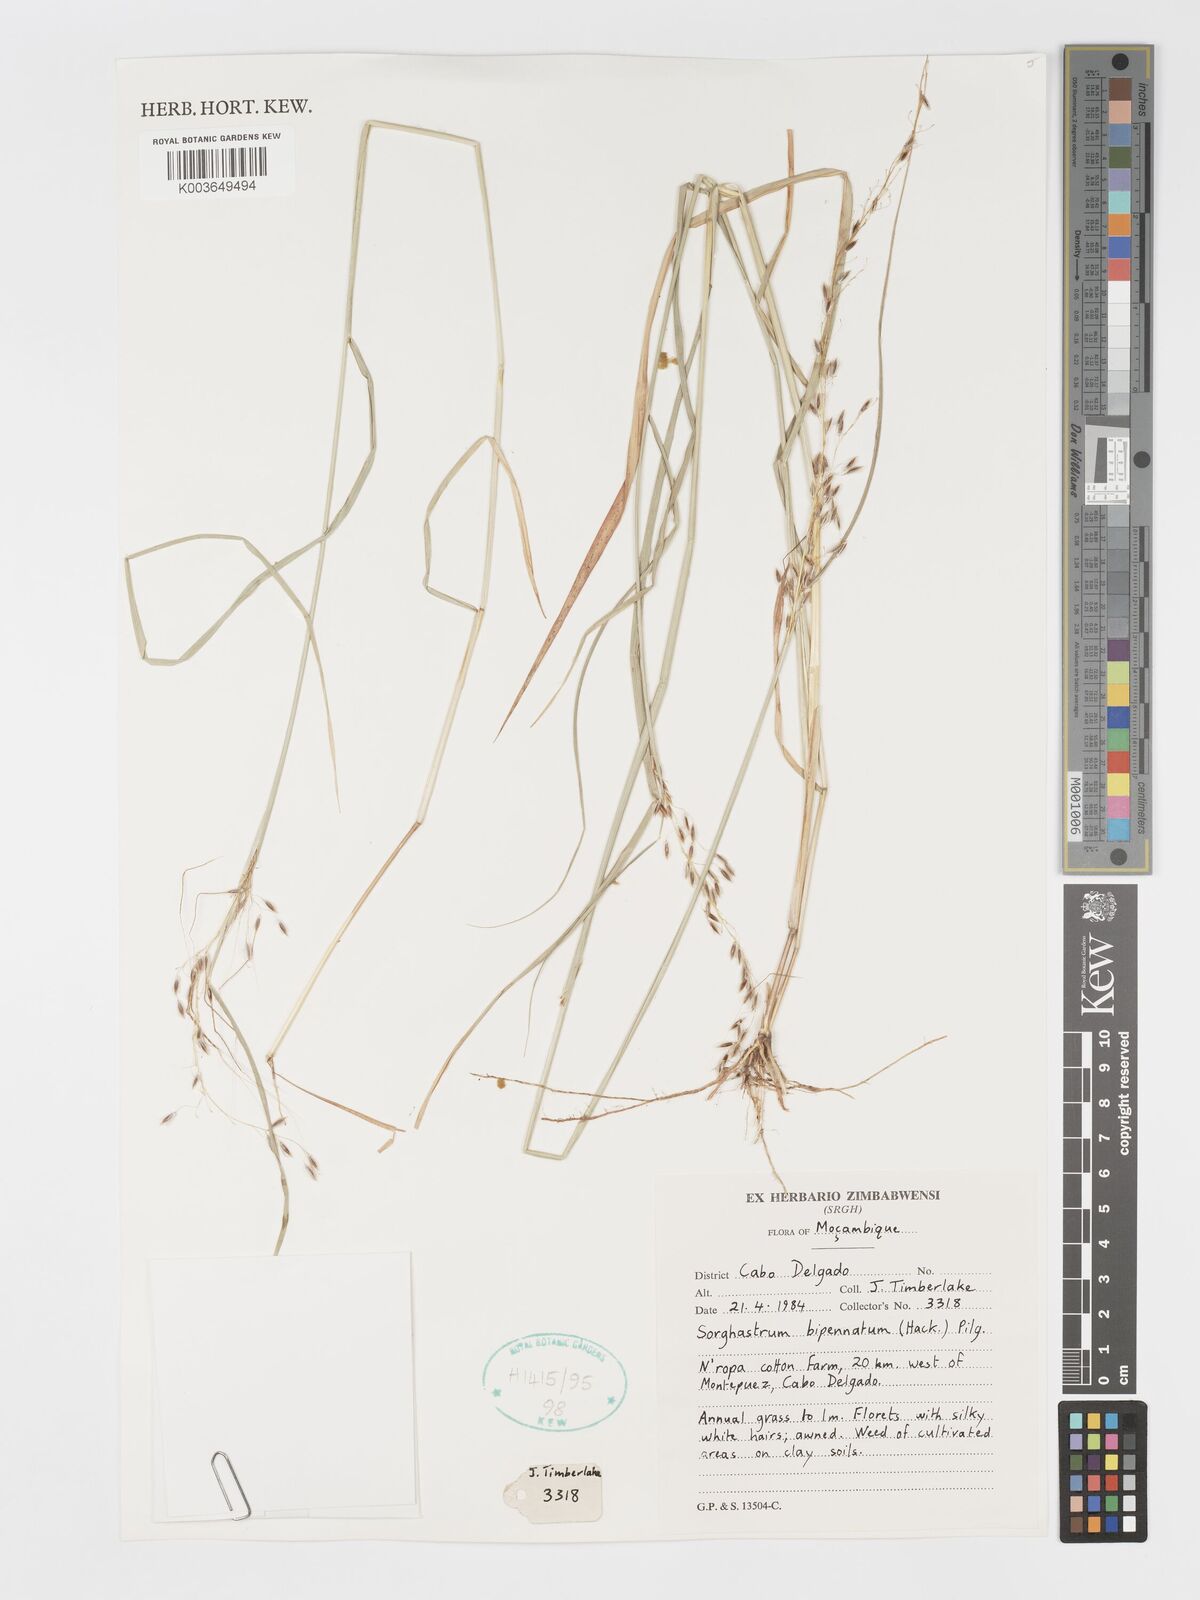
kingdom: Plantae
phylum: Tracheophyta
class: Liliopsida
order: Poales
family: Poaceae
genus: Sorghastrum
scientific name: Sorghastrum incompletum
